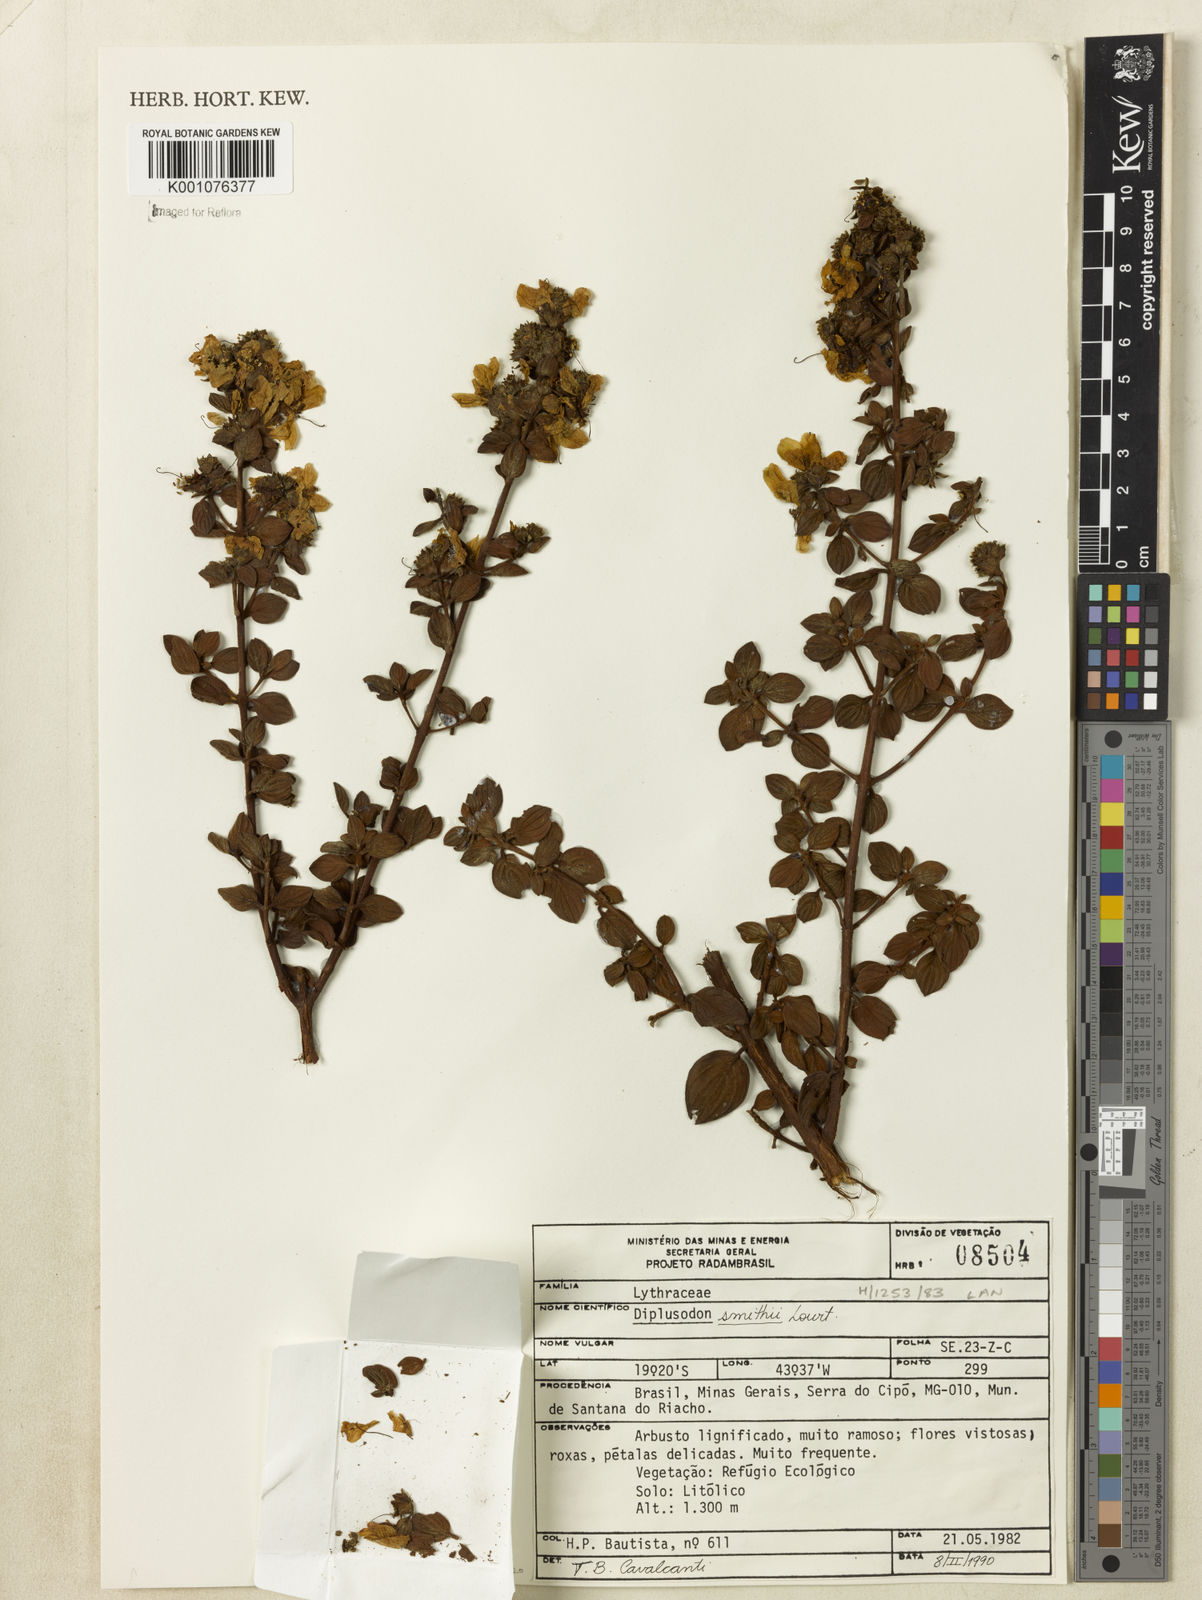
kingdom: Plantae
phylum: Tracheophyta
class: Magnoliopsida
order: Myrtales
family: Lythraceae
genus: Diplusodon
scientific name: Diplusodon hirsutus
